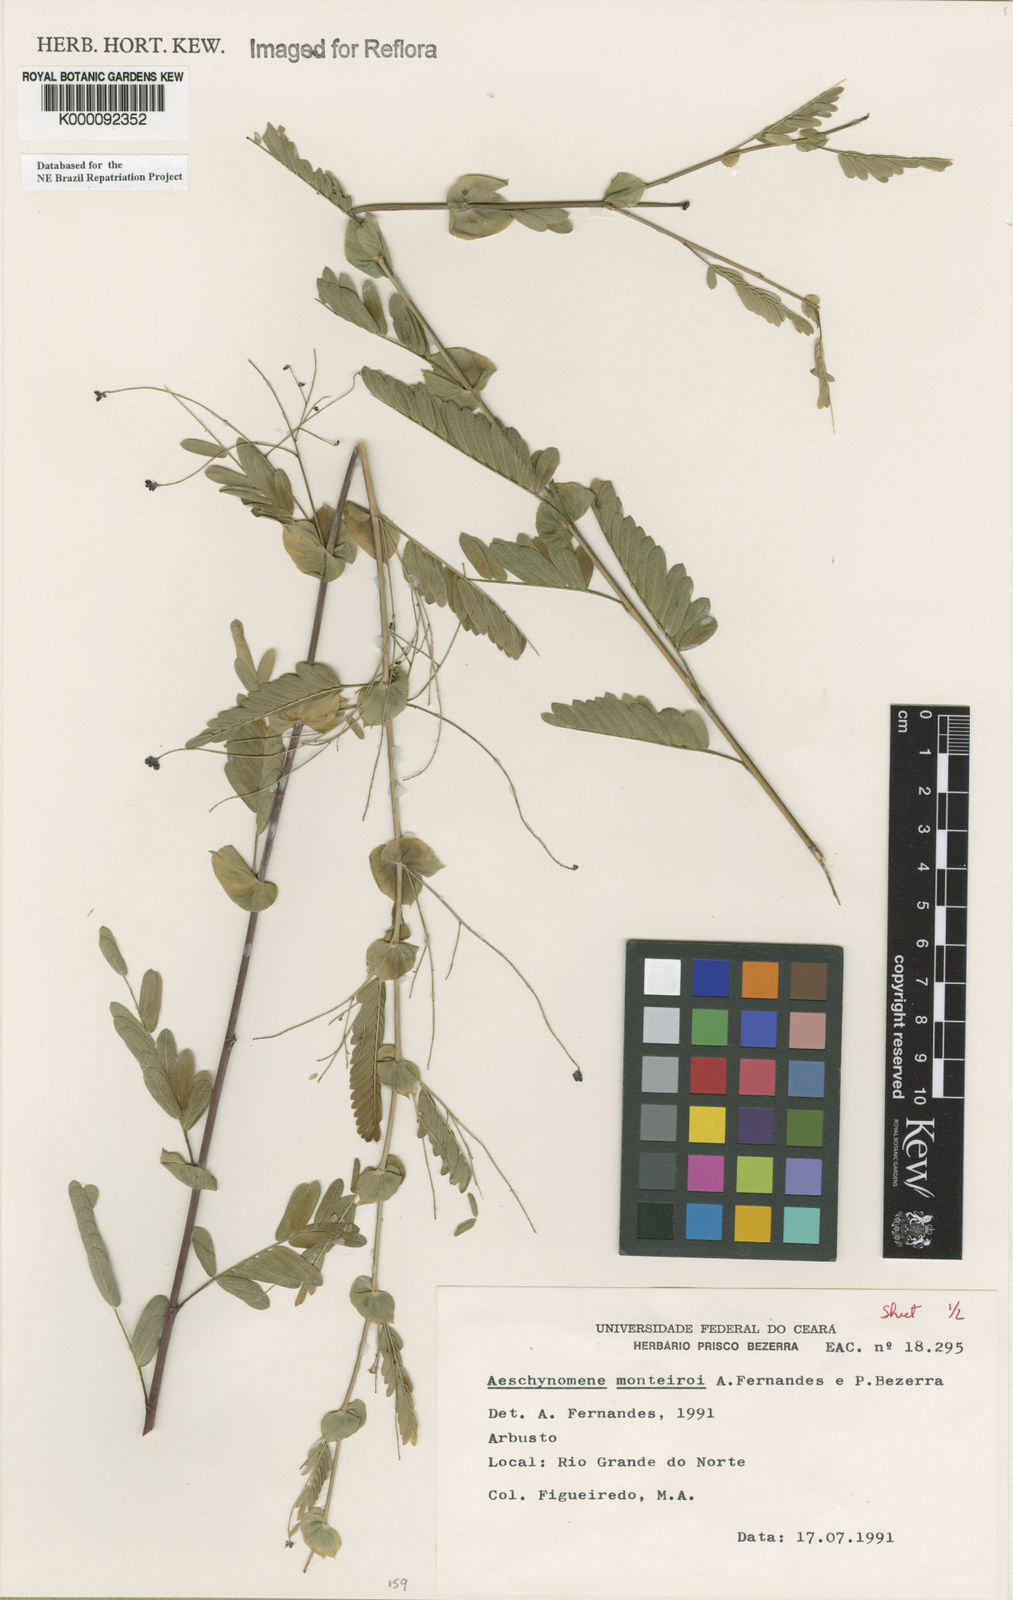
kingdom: Plantae
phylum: Tracheophyta
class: Magnoliopsida
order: Fabales
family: Fabaceae
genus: Ctenodon
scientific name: Ctenodon monteiroi
